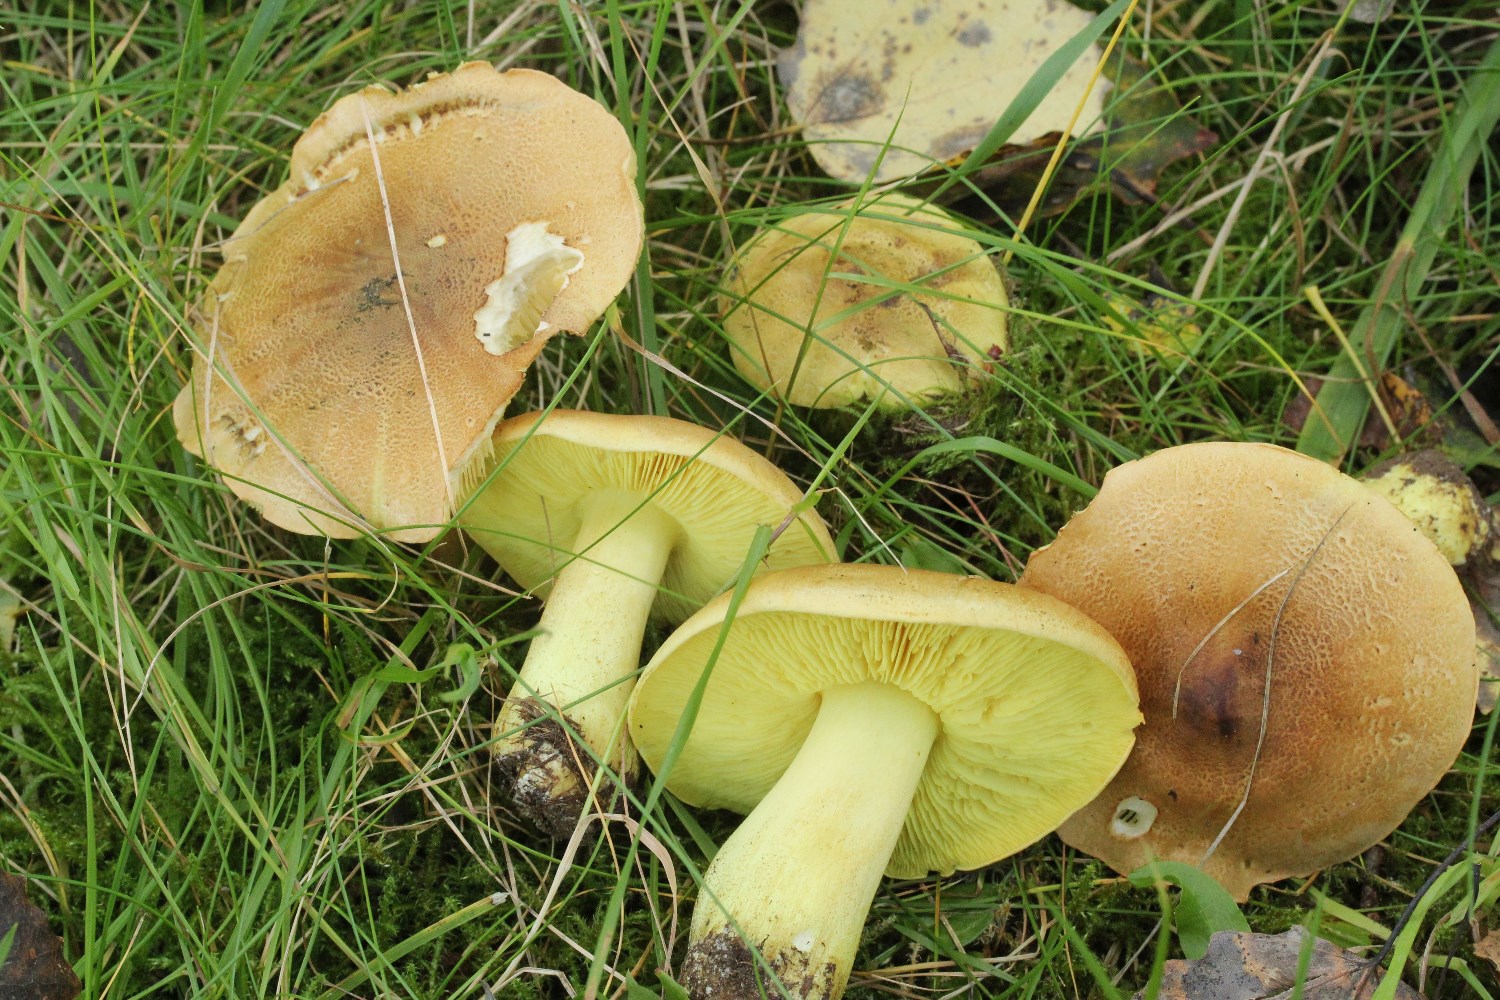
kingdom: Fungi
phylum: Basidiomycota
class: Agaricomycetes
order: Agaricales
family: Tricholomataceae
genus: Tricholoma
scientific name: Tricholoma frondosae
